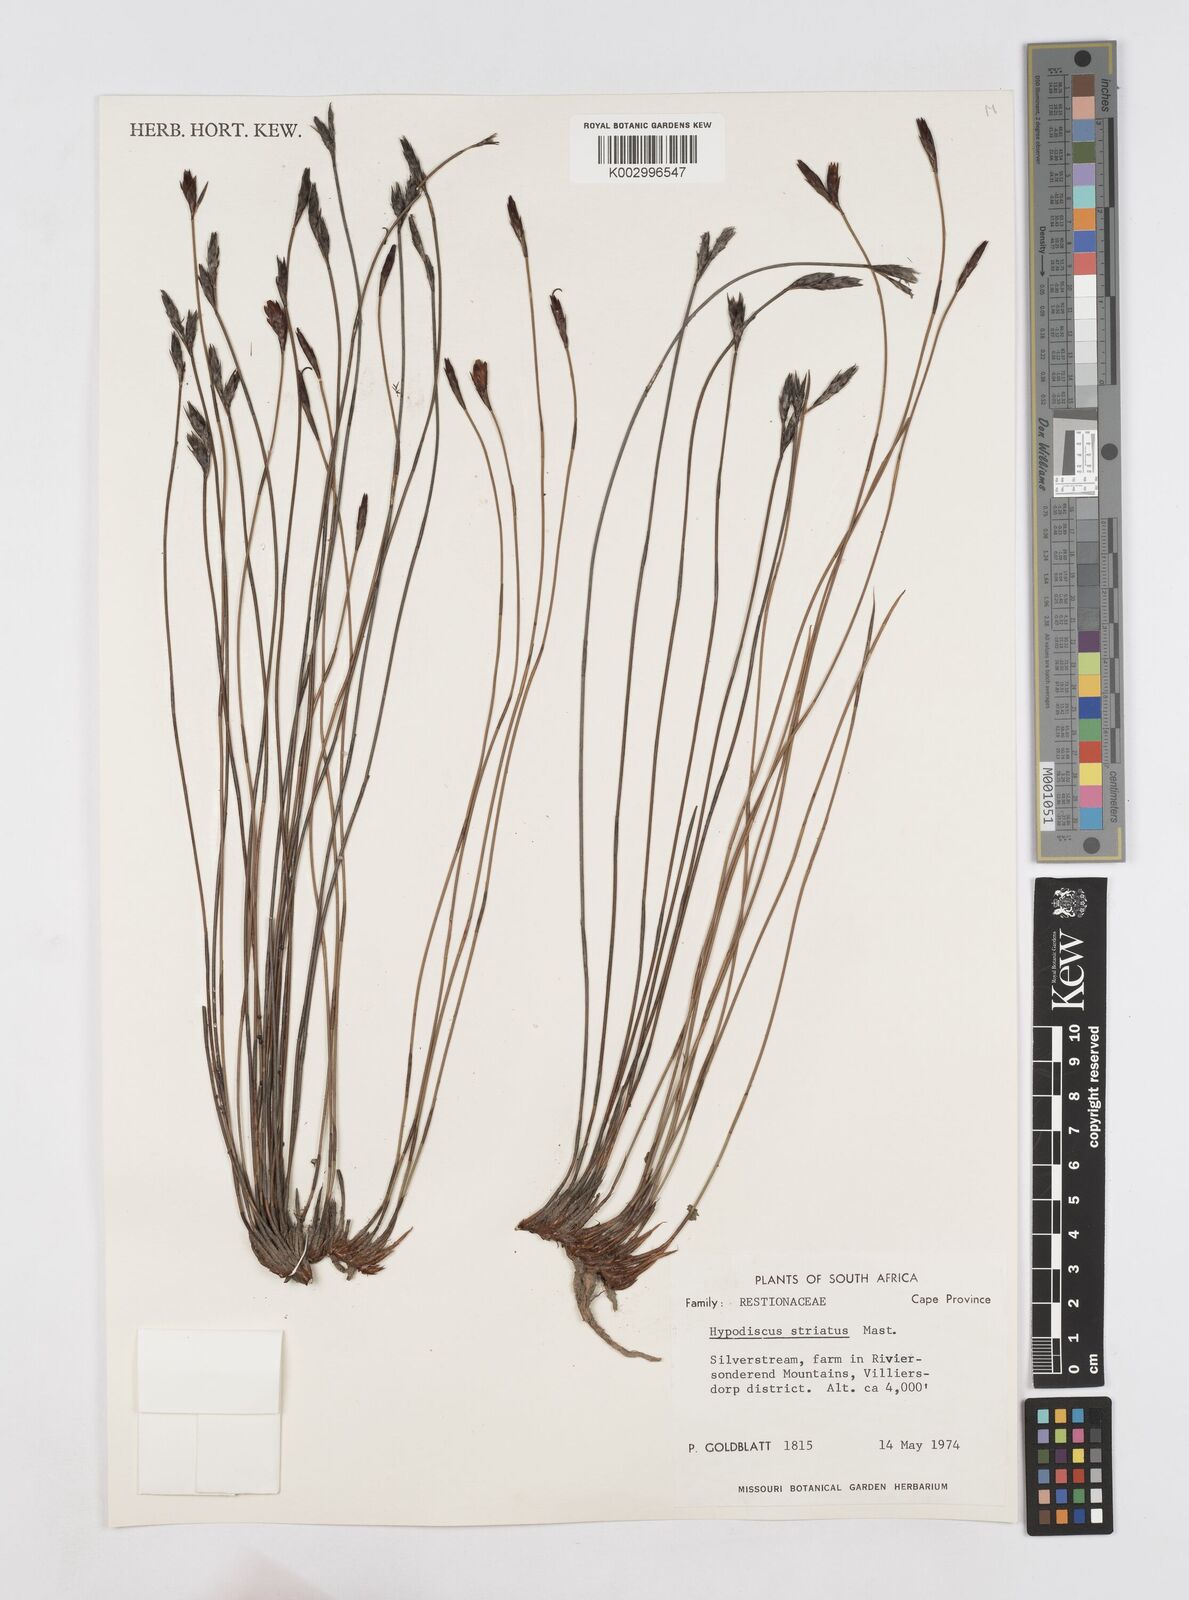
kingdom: Plantae
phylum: Tracheophyta
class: Liliopsida
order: Poales
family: Restionaceae
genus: Hypodiscus
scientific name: Hypodiscus striatus
